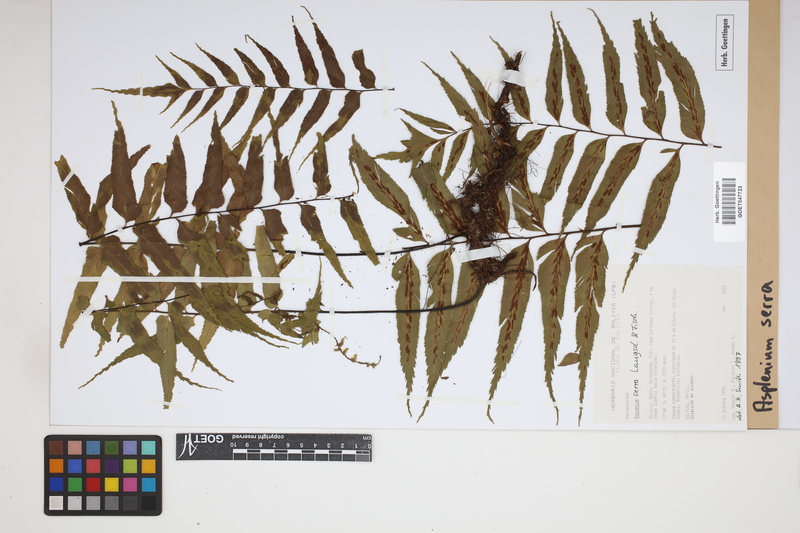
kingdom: Plantae
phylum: Tracheophyta
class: Polypodiopsida
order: Polypodiales
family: Aspleniaceae
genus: Asplenium
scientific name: Asplenium serra
